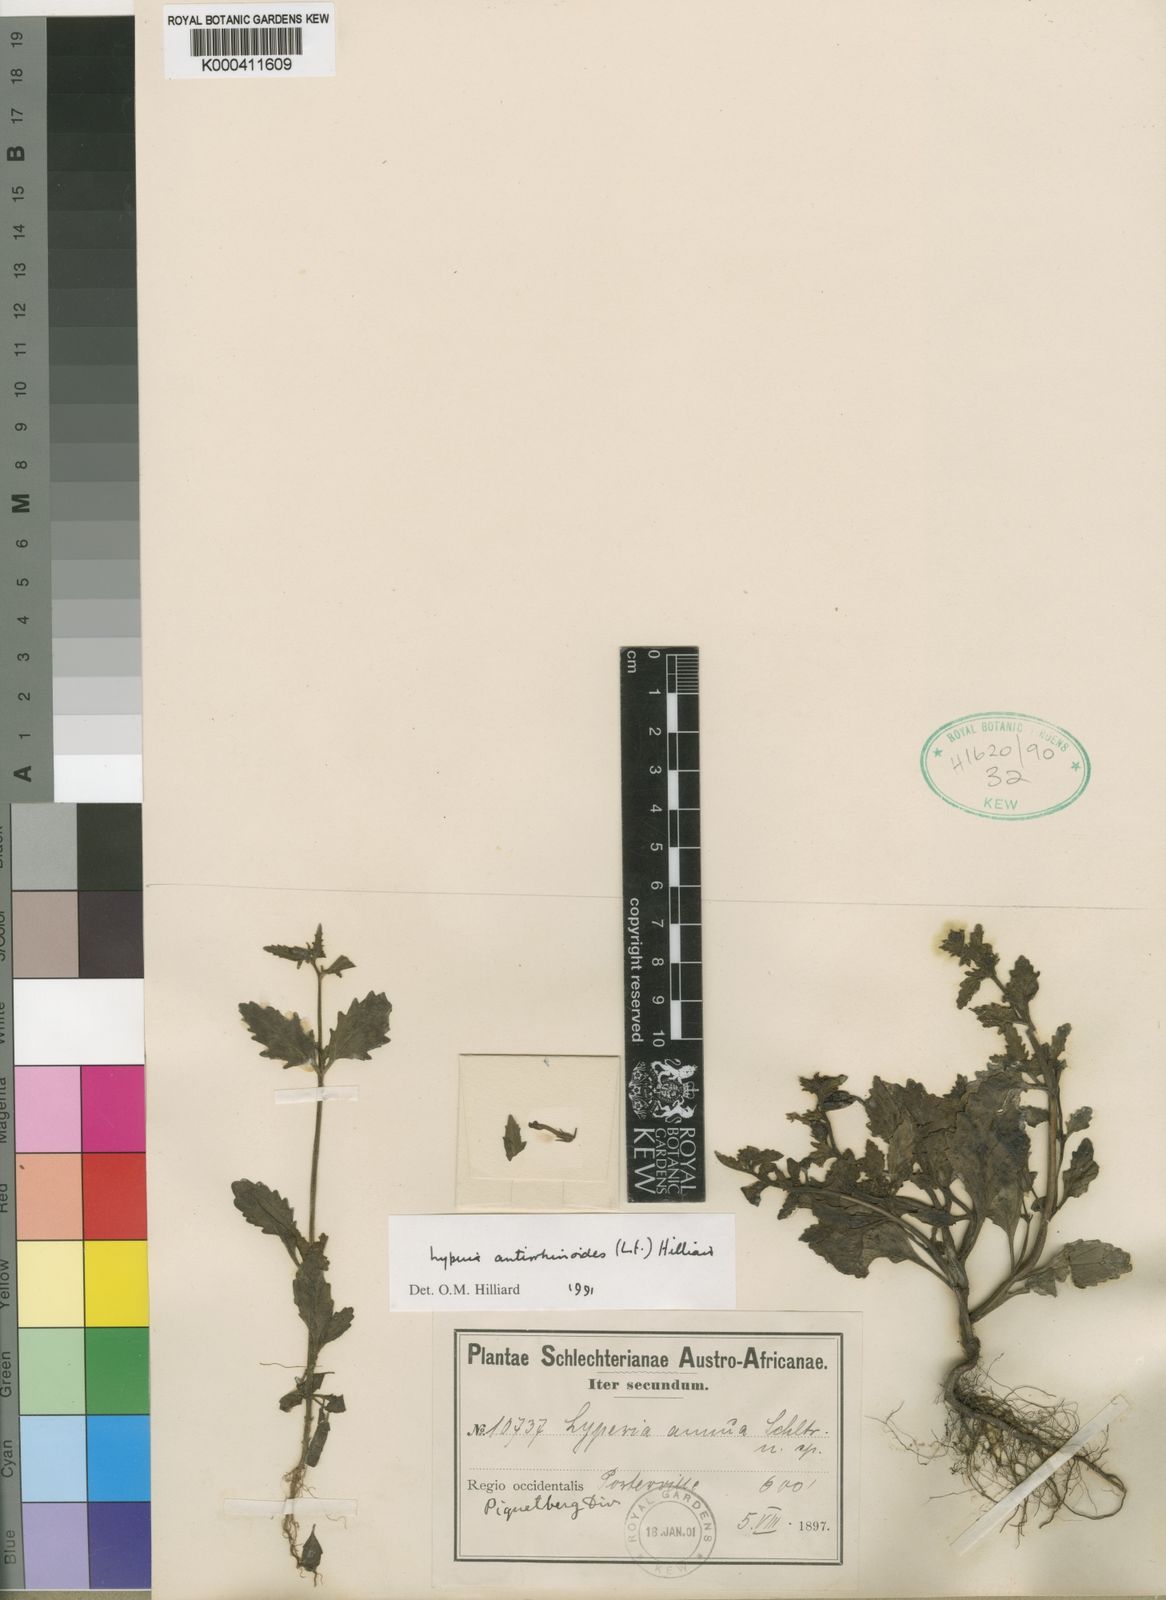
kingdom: Plantae
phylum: Tracheophyta
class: Magnoliopsida
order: Lamiales
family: Scrophulariaceae
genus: Lyperia
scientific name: Lyperia antirrhinoides
